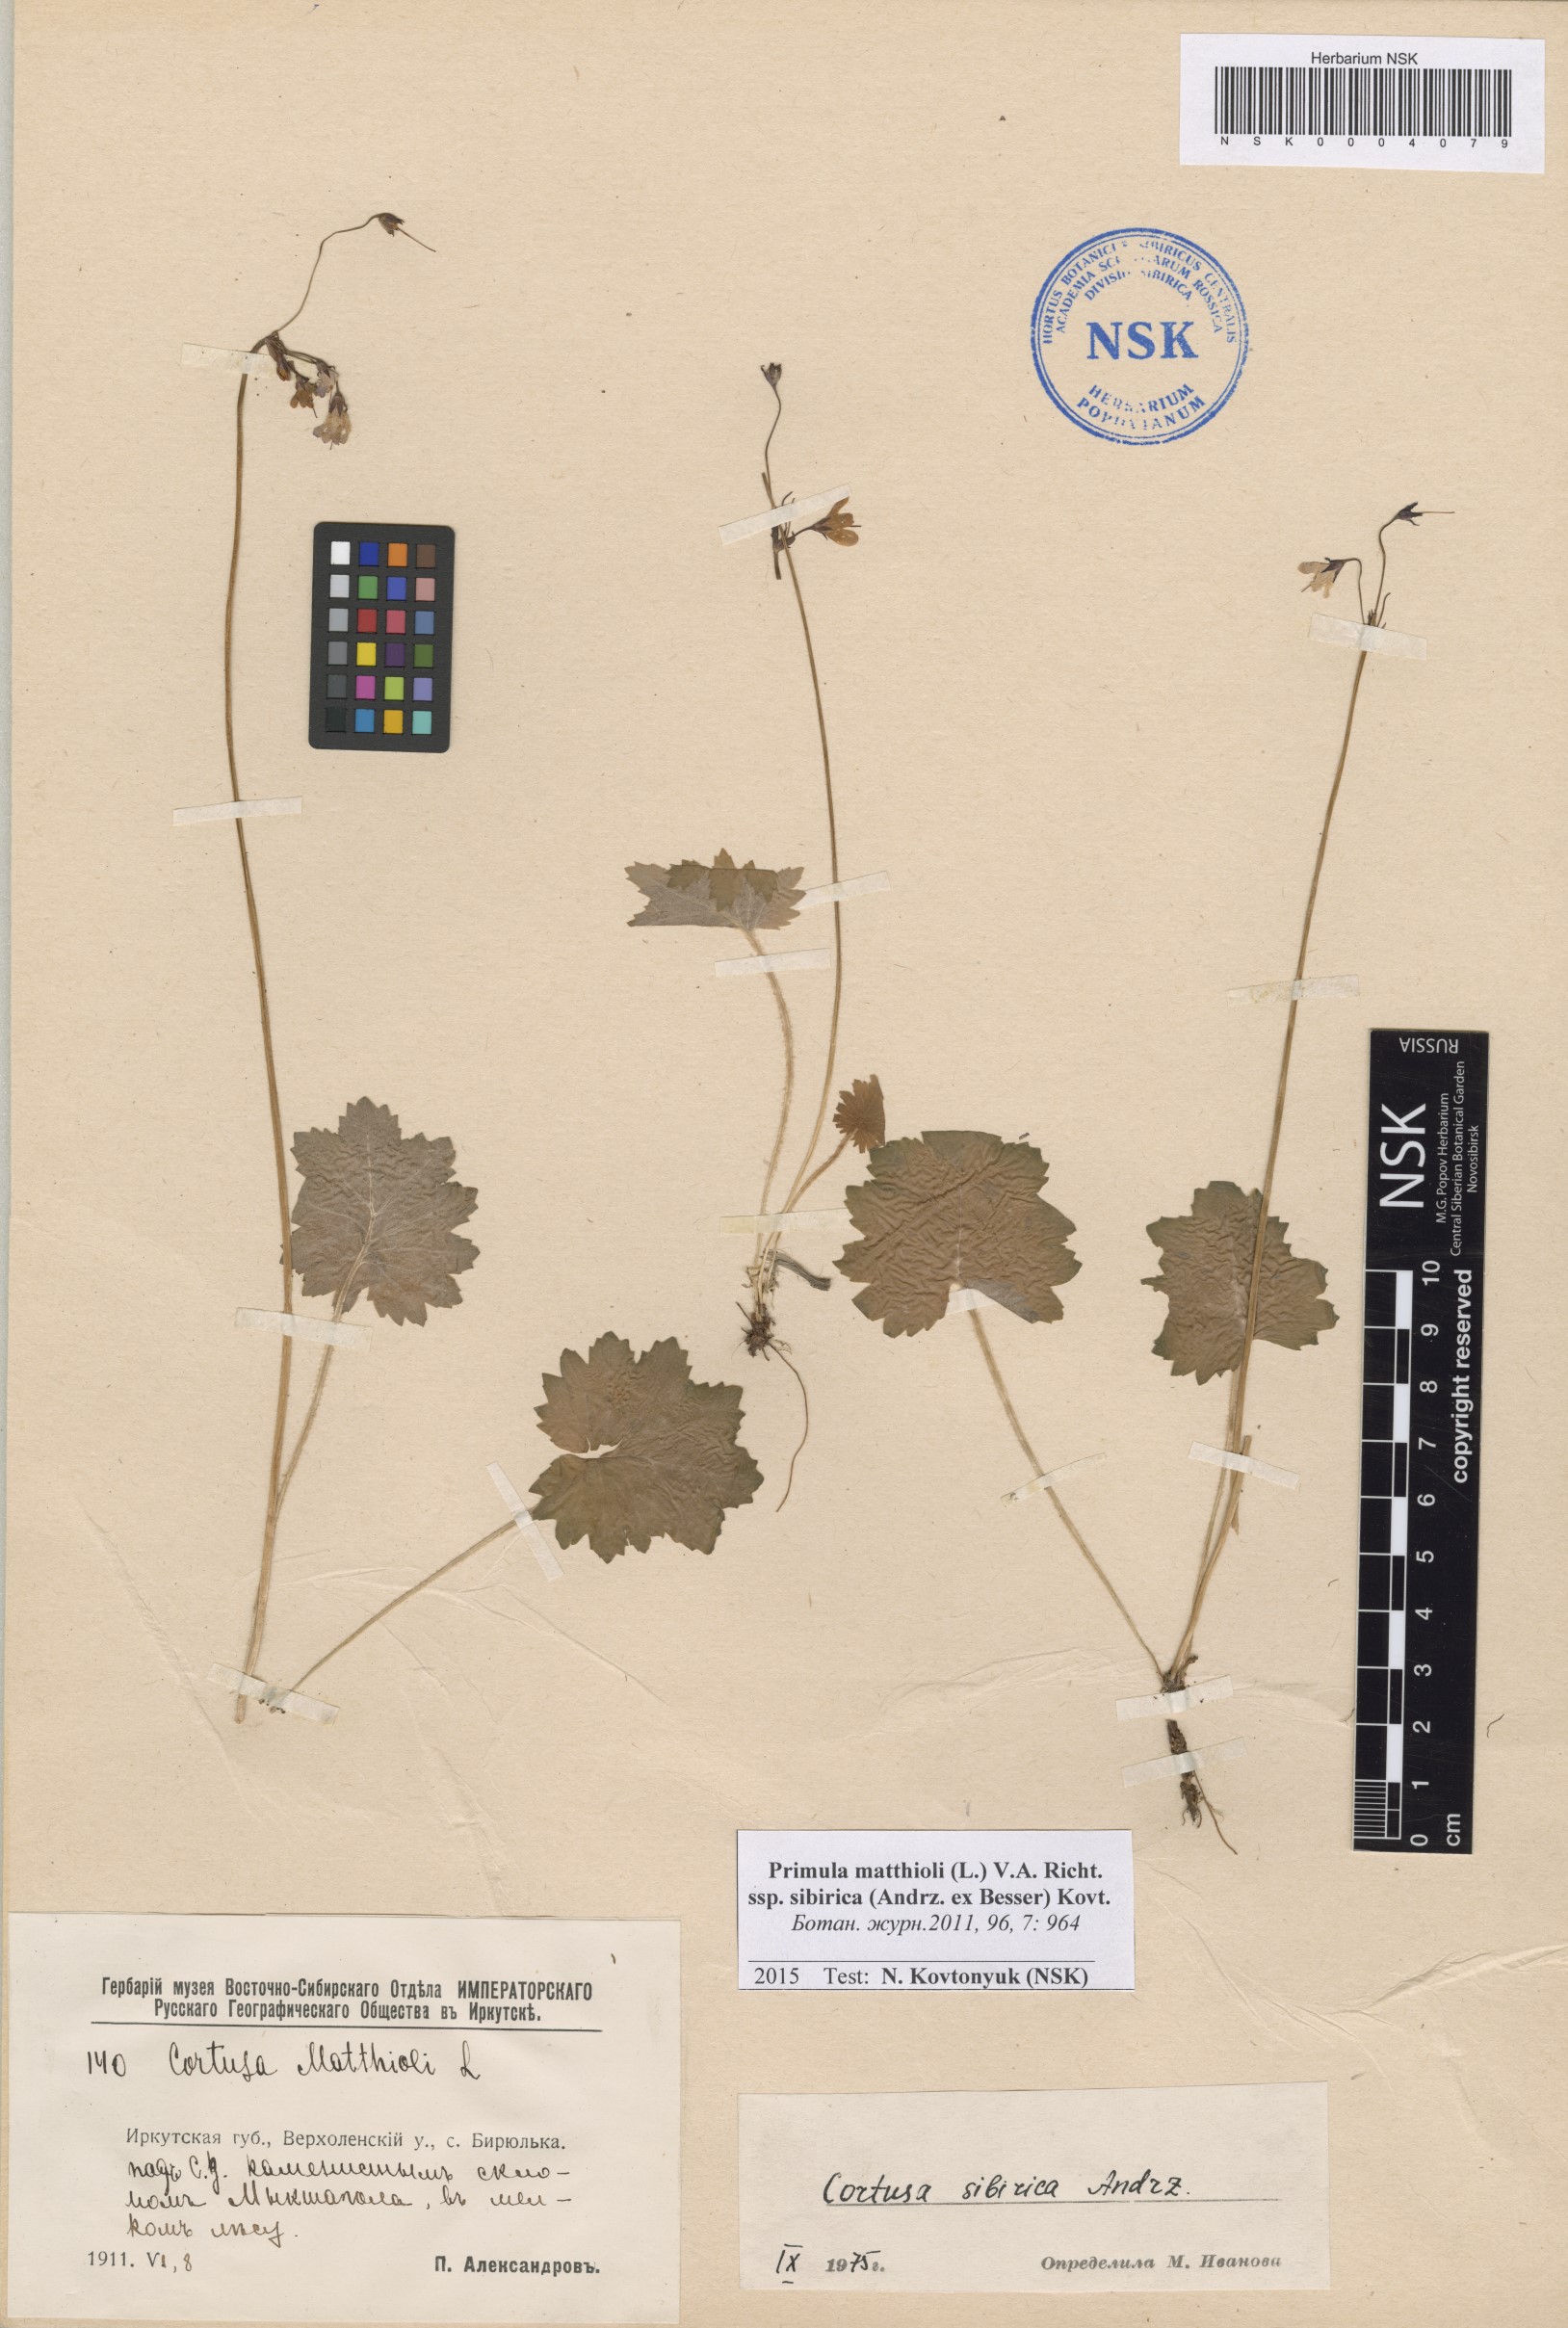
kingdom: Plantae
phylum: Tracheophyta
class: Magnoliopsida
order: Ericales
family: Primulaceae
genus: Primula
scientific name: Primula matthioli
